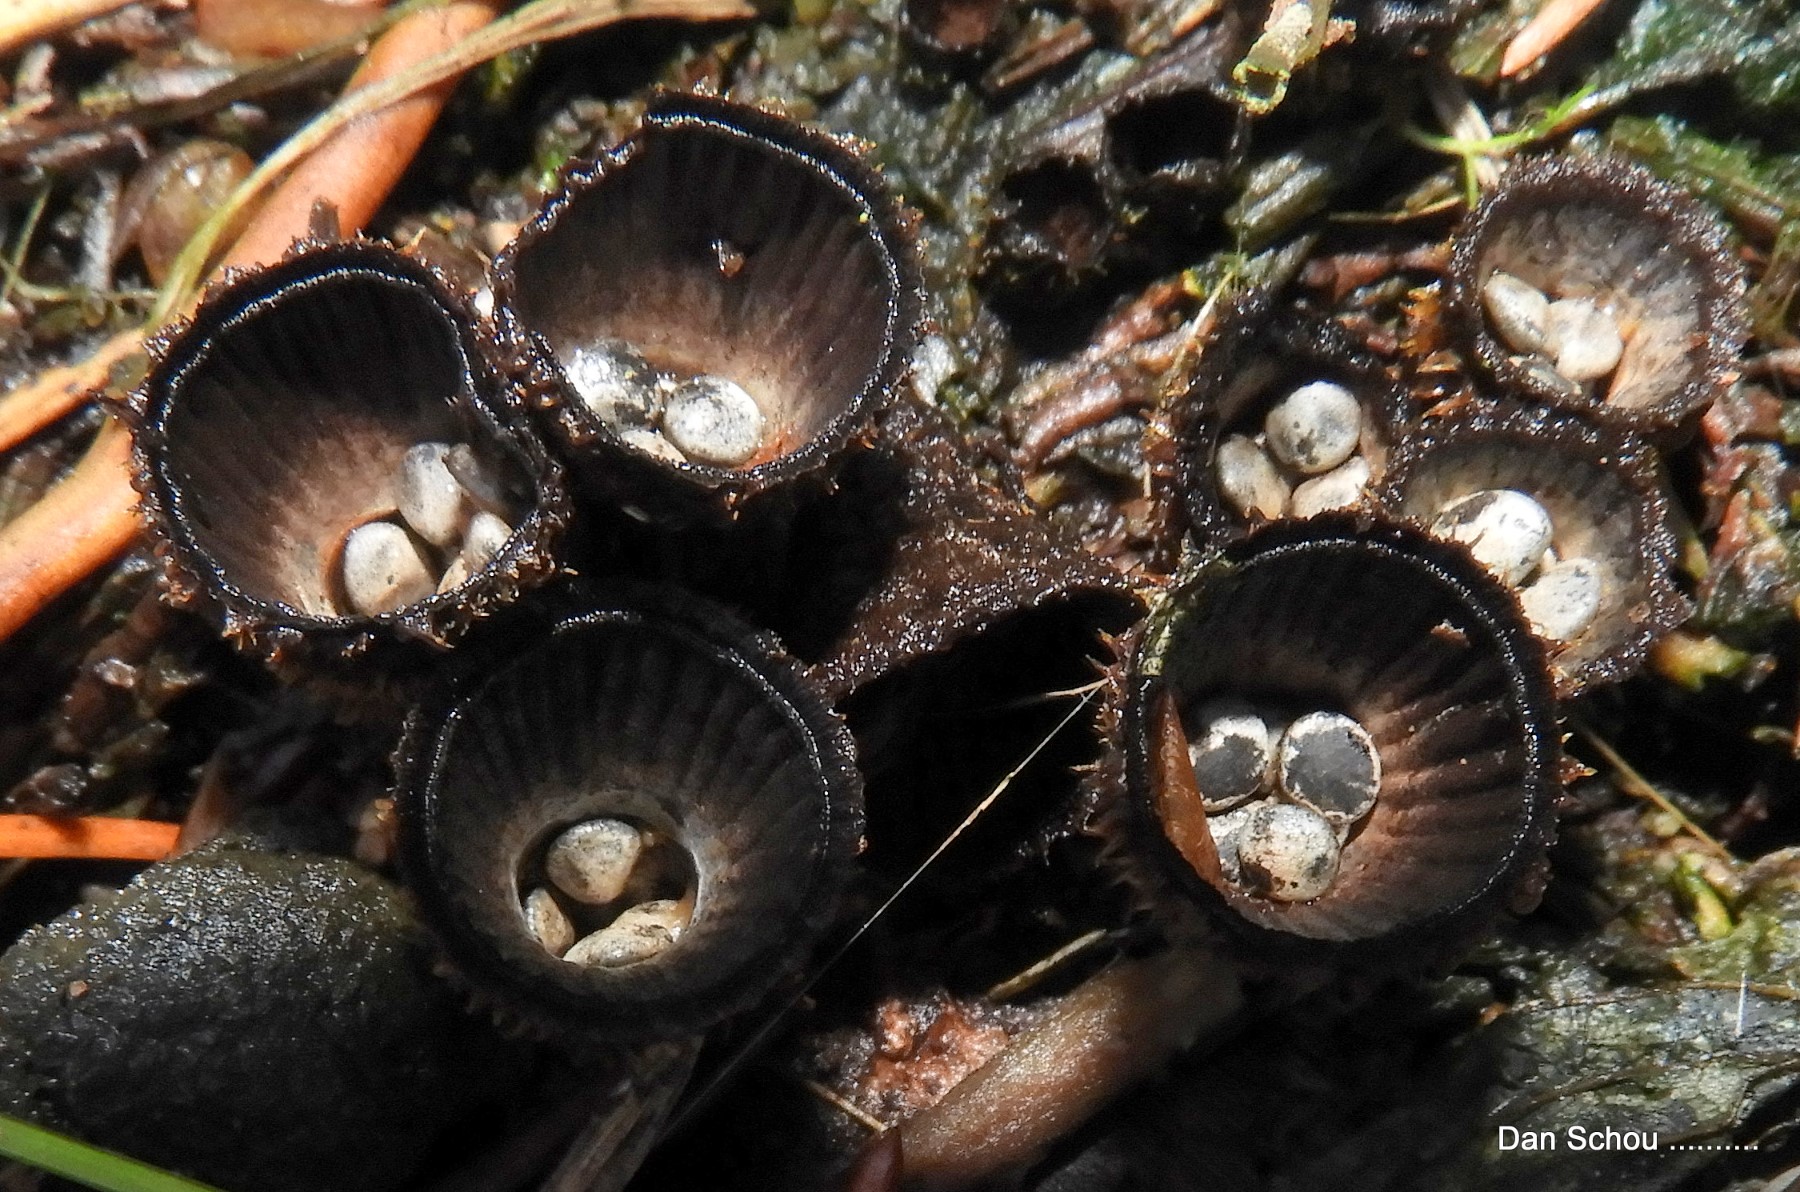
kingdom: Fungi
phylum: Basidiomycota
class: Agaricomycetes
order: Agaricales
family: Agaricaceae
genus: Cyathus
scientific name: Cyathus striatus
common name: stribet redesvamp
